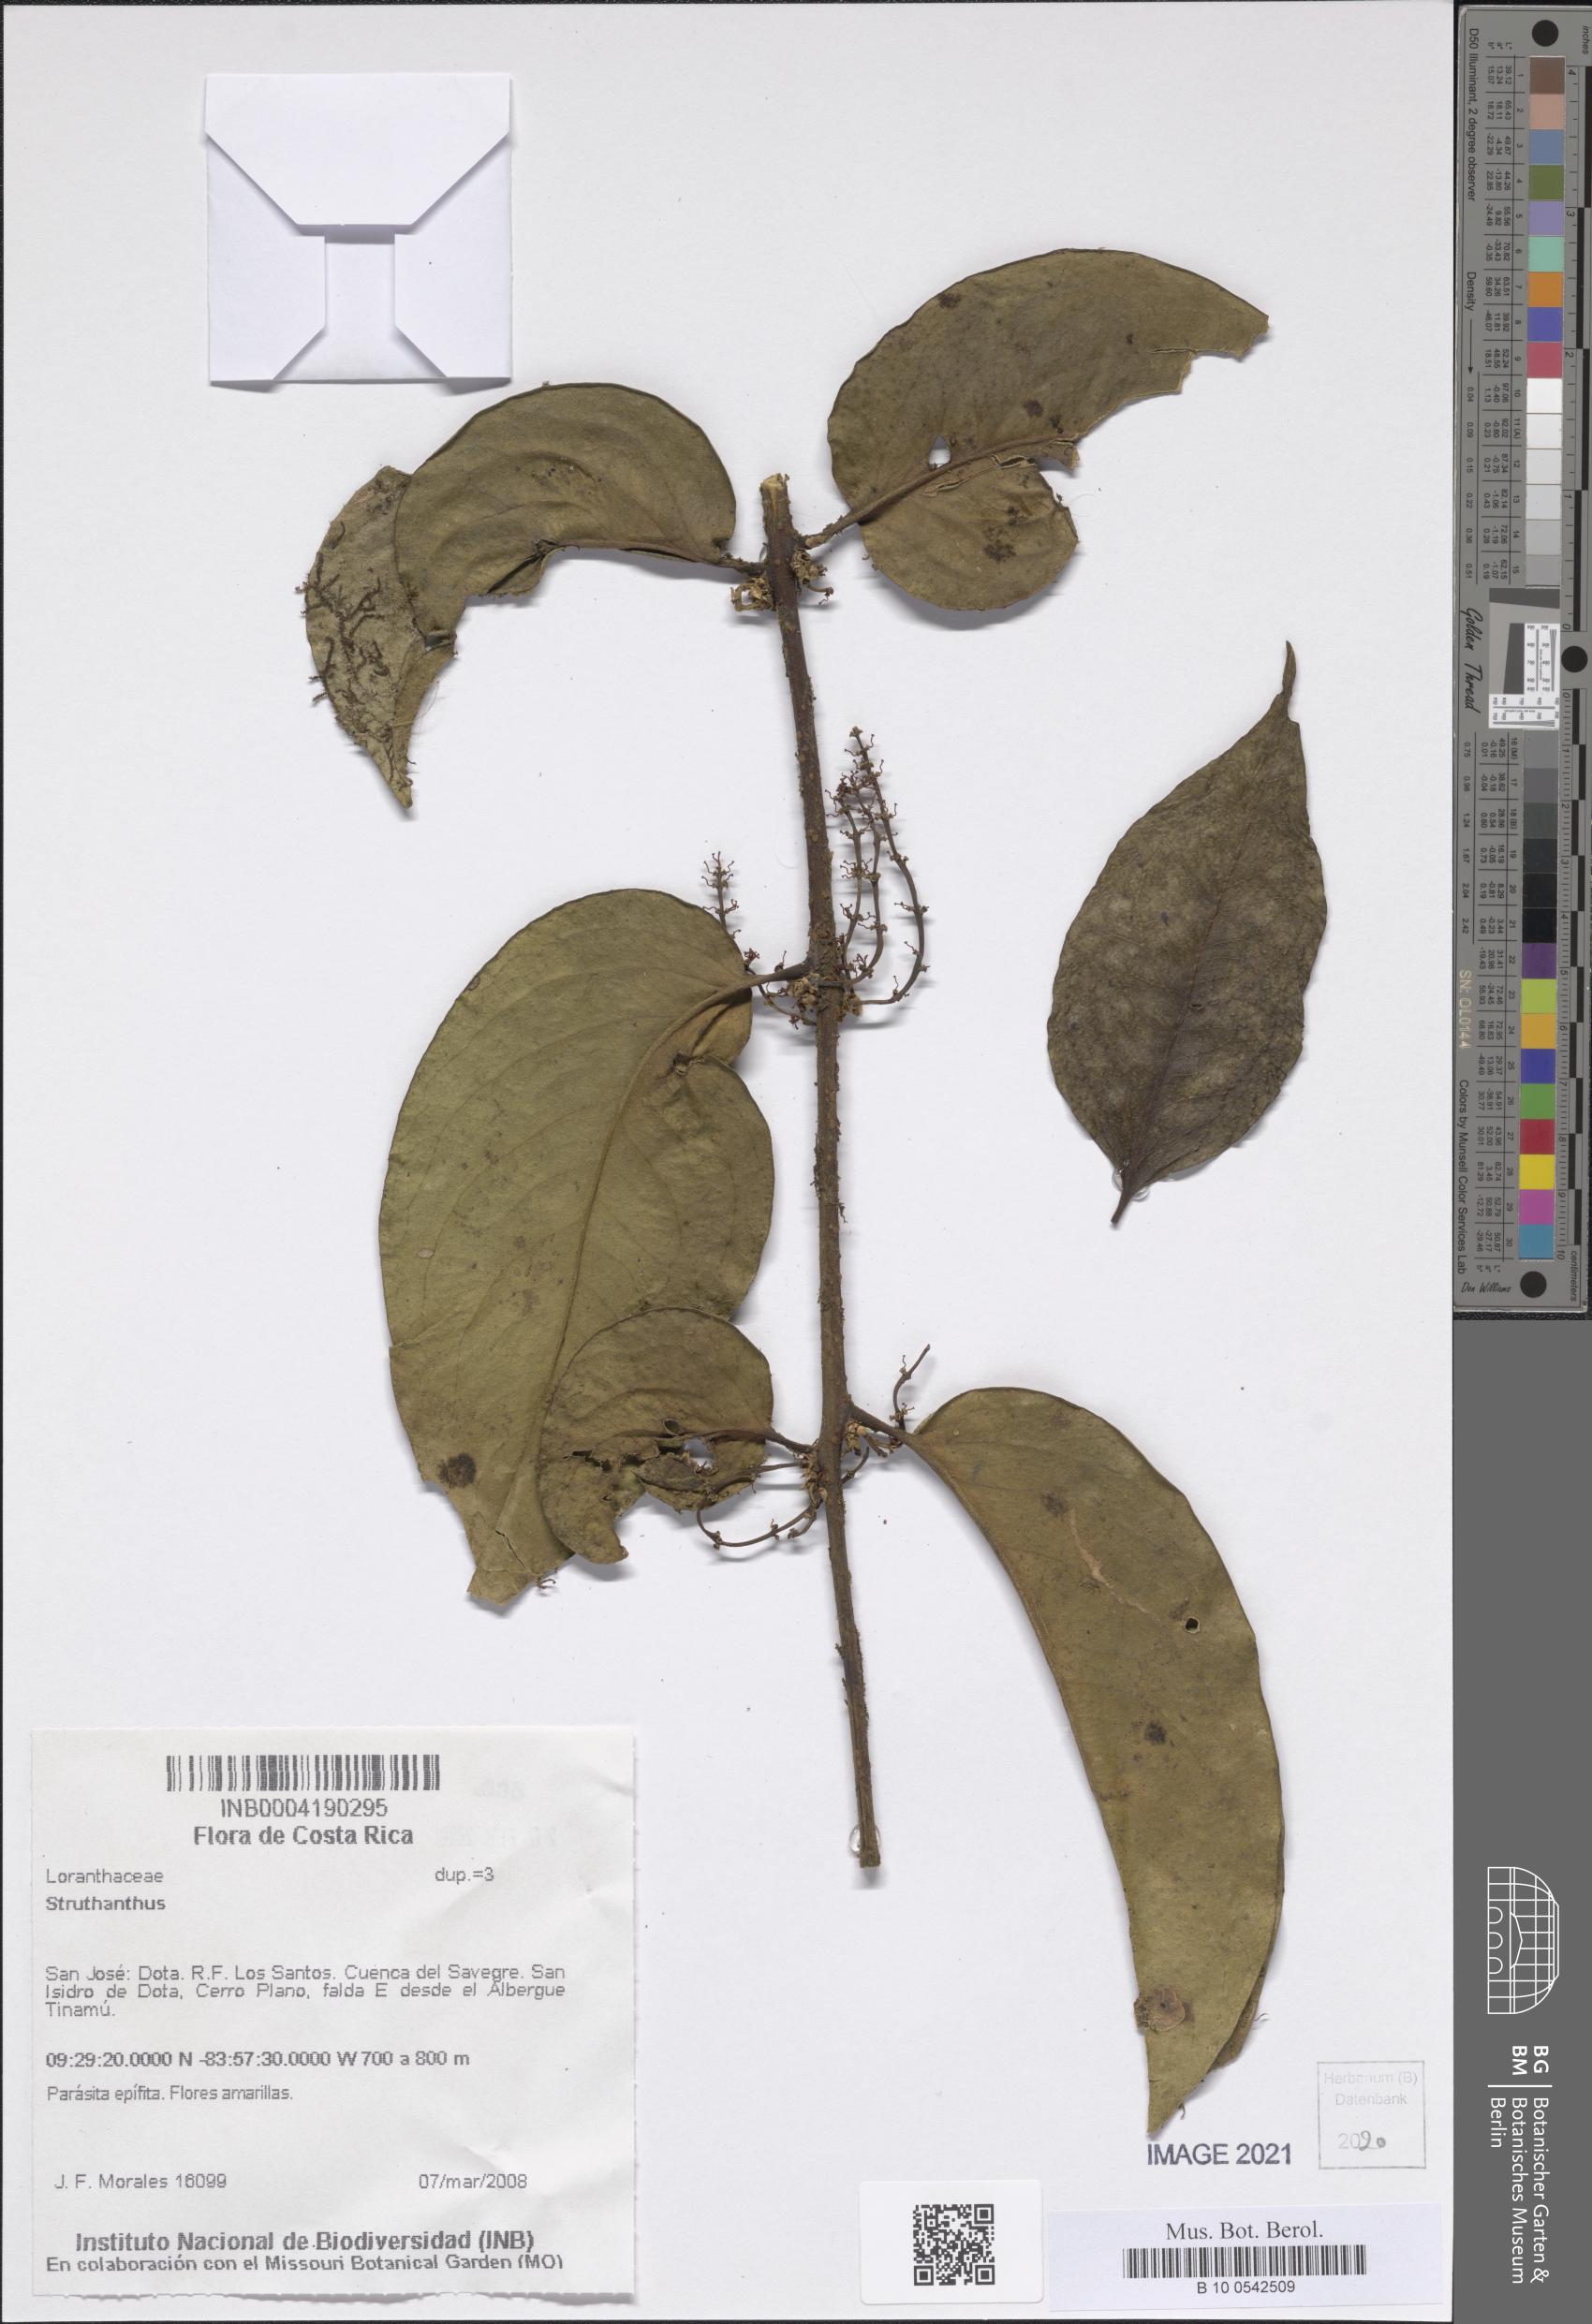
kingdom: Plantae
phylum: Tracheophyta
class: Magnoliopsida
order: Santalales
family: Loranthaceae
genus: Struthanthus
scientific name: Struthanthus
